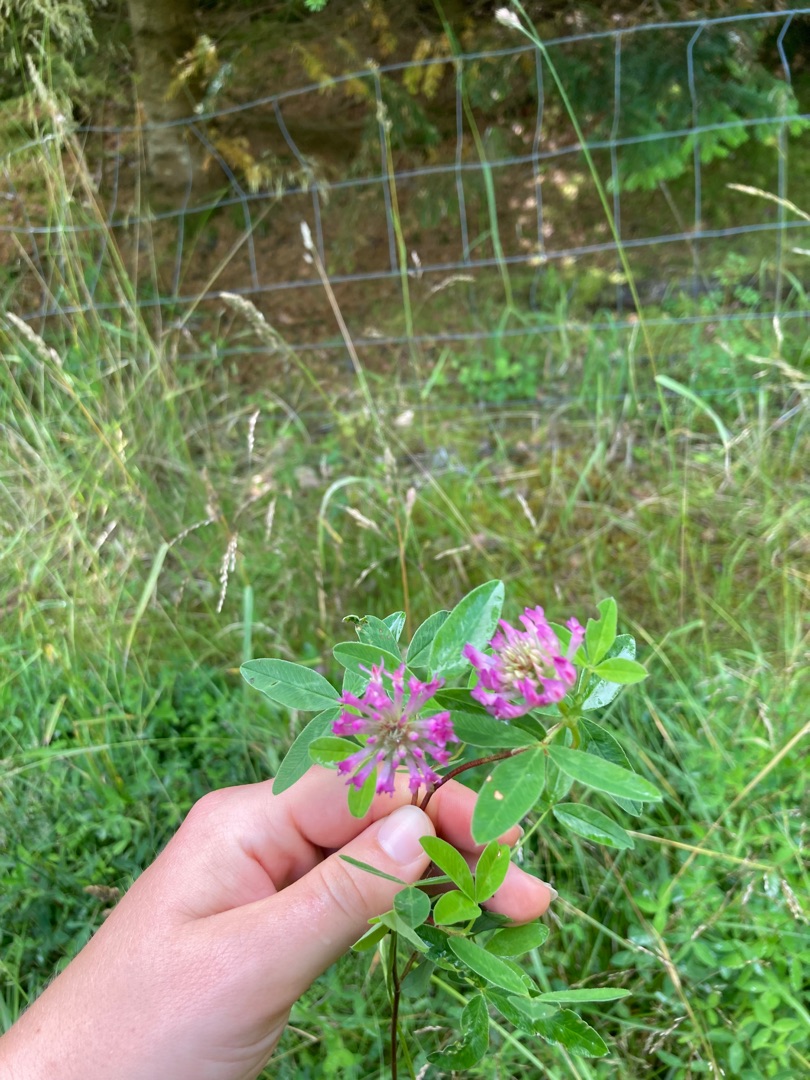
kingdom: Plantae
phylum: Tracheophyta
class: Magnoliopsida
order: Fabales
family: Fabaceae
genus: Trifolium
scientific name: Trifolium medium
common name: Bugtet kløver
